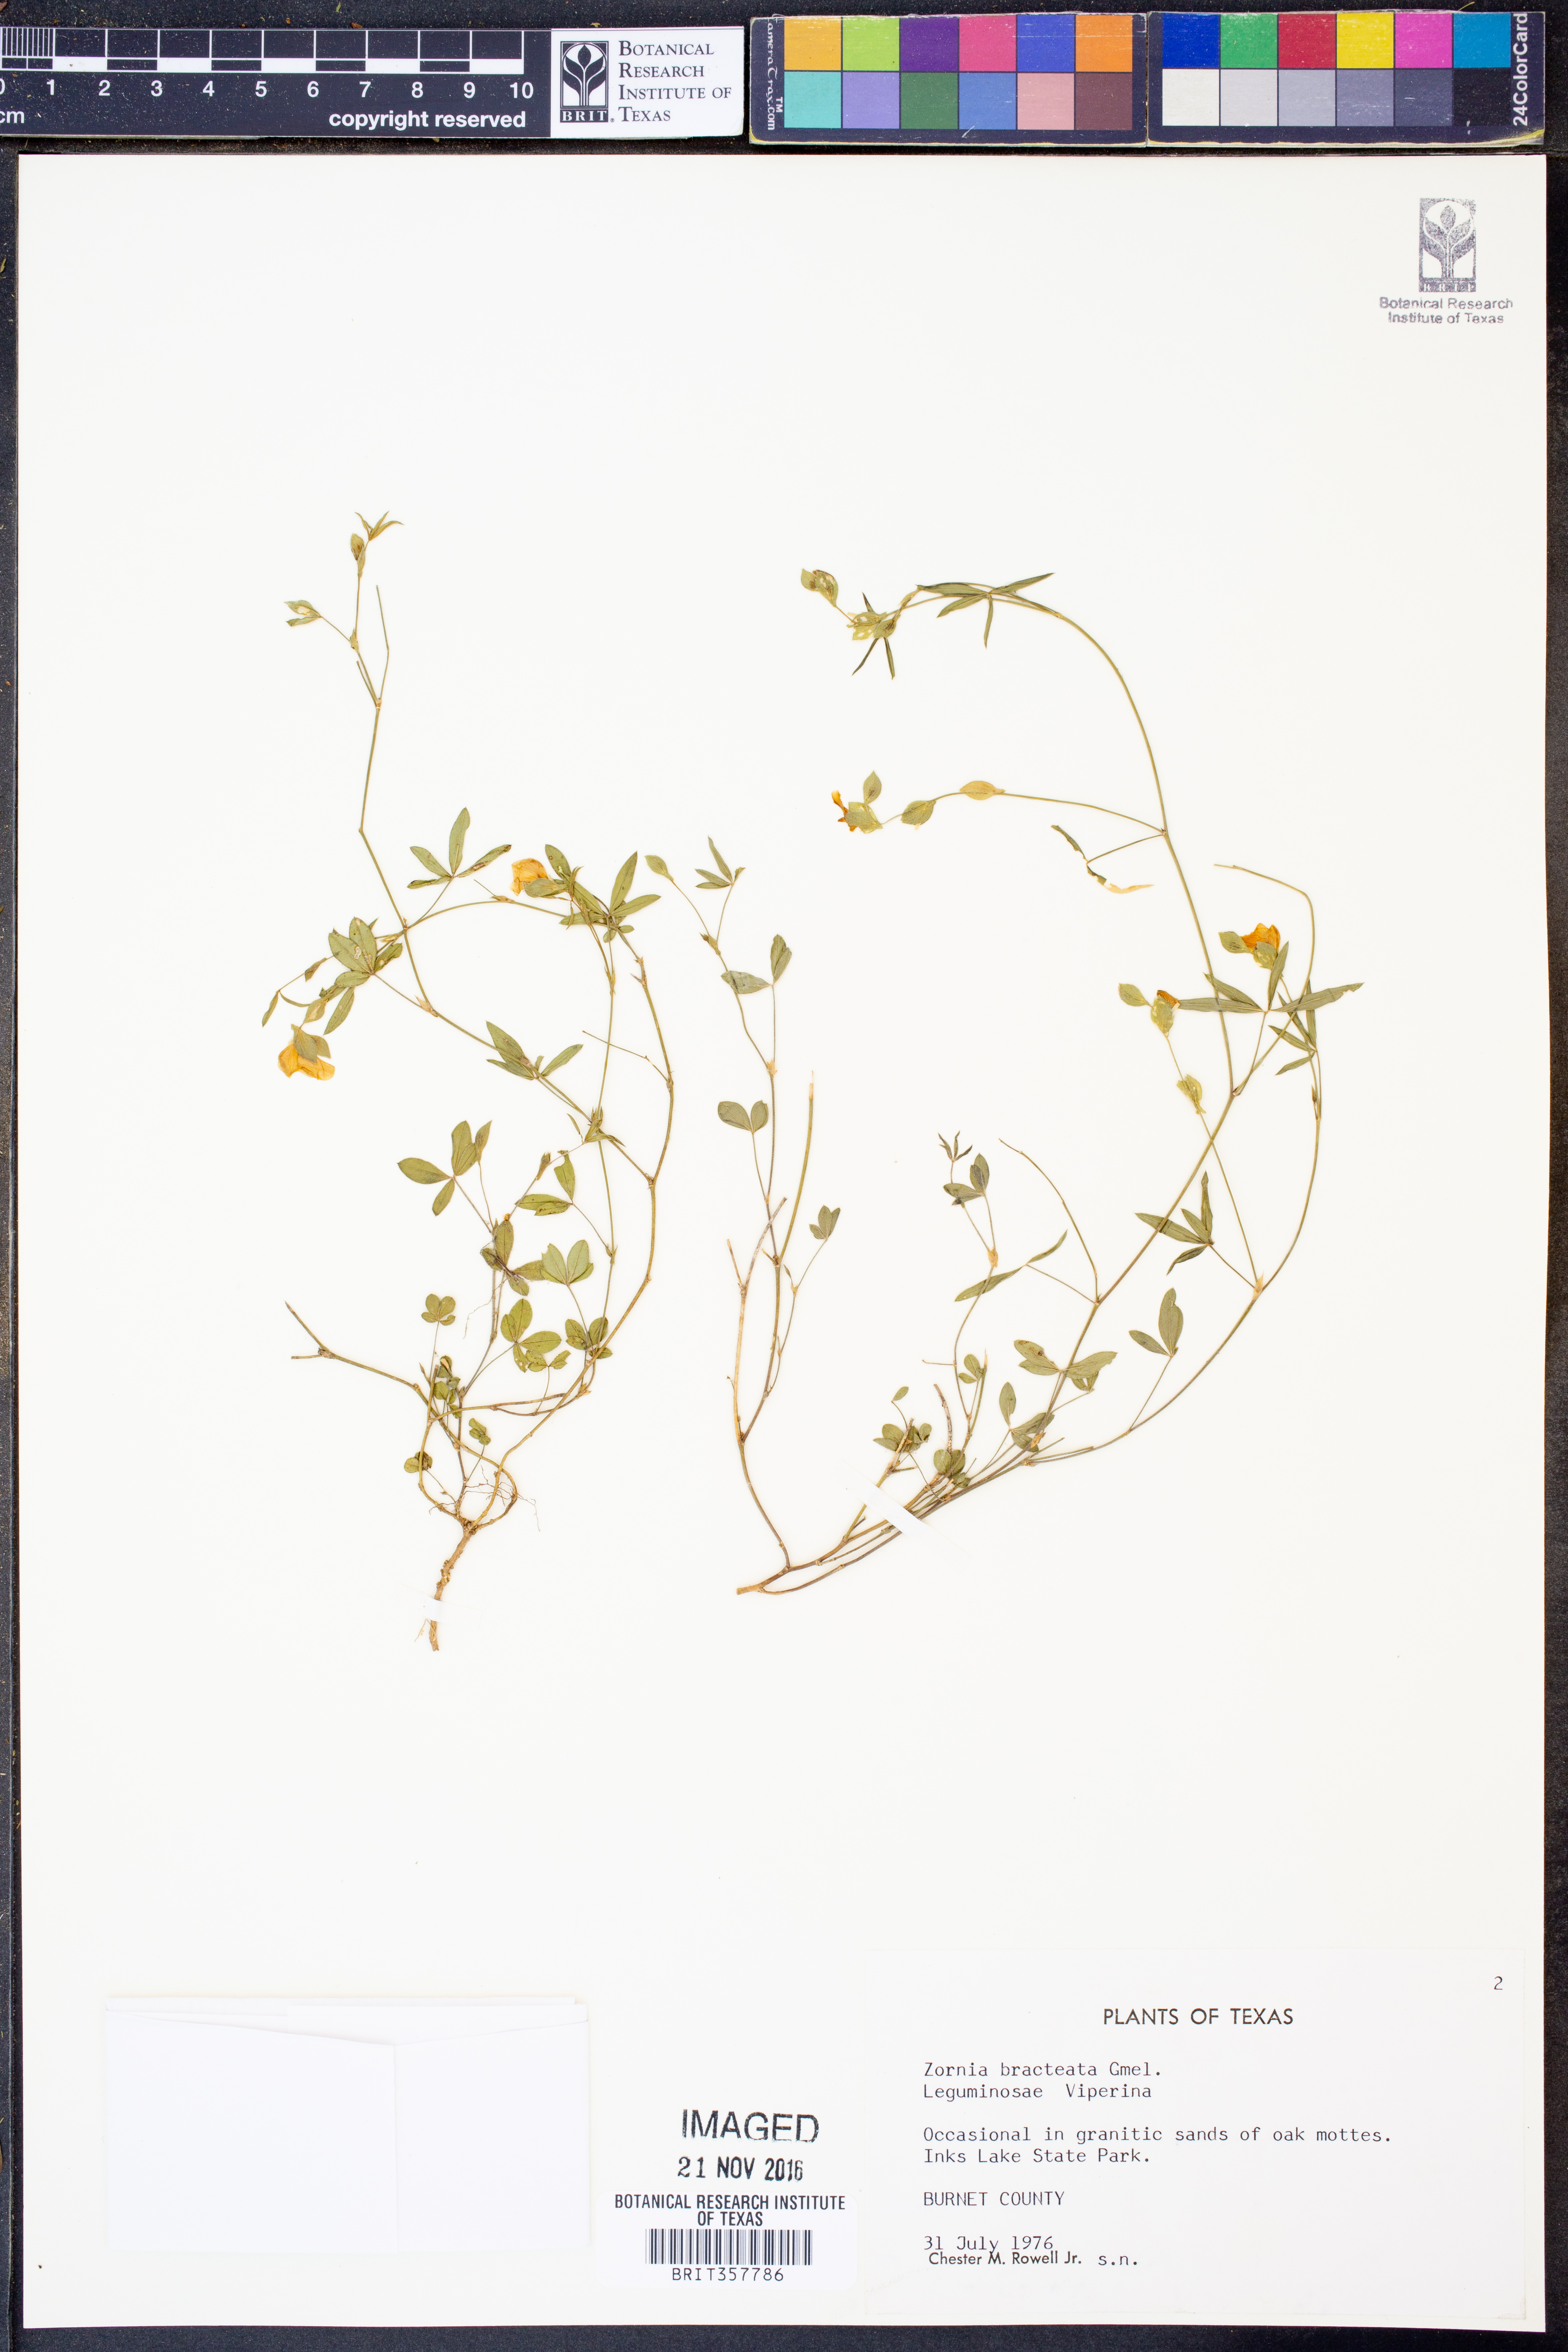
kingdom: Plantae
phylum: Tracheophyta
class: Magnoliopsida
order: Fabales
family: Fabaceae
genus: Zornia
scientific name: Zornia bracteata
